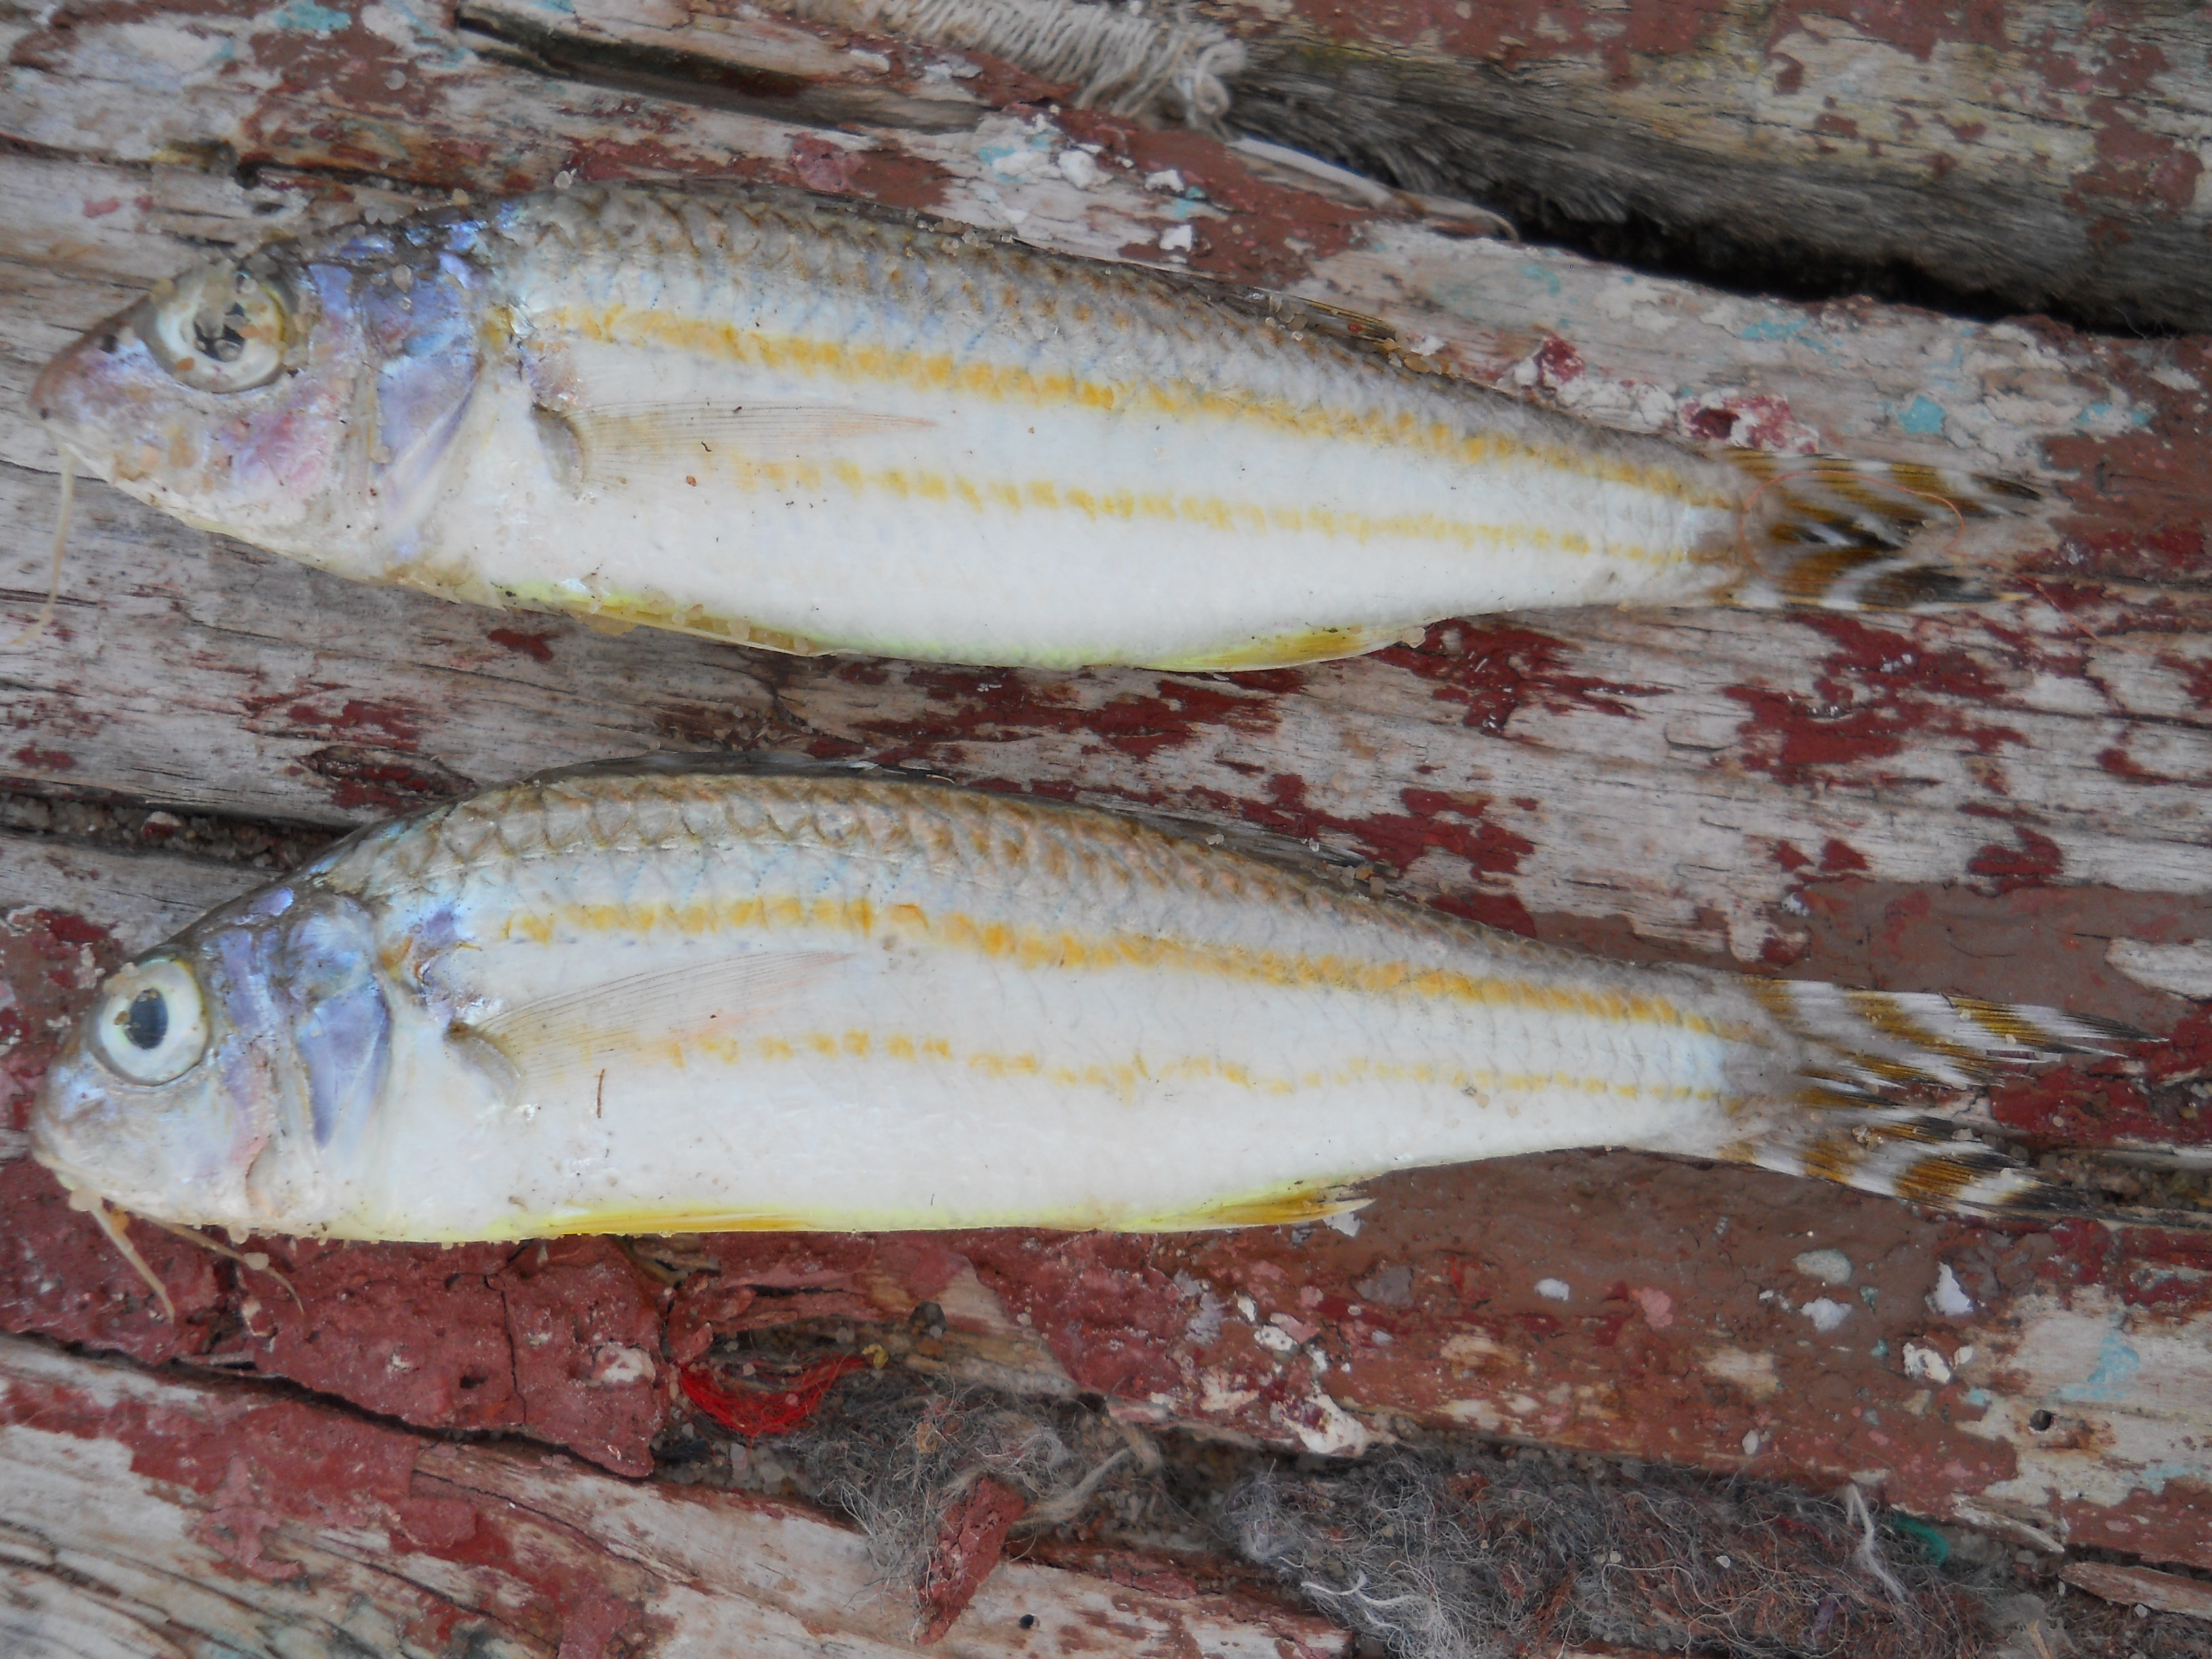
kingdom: Animalia
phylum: Chordata
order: Perciformes
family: Mullidae
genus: Upeneus
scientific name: Upeneus suahelicus
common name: Swahili goatfish
